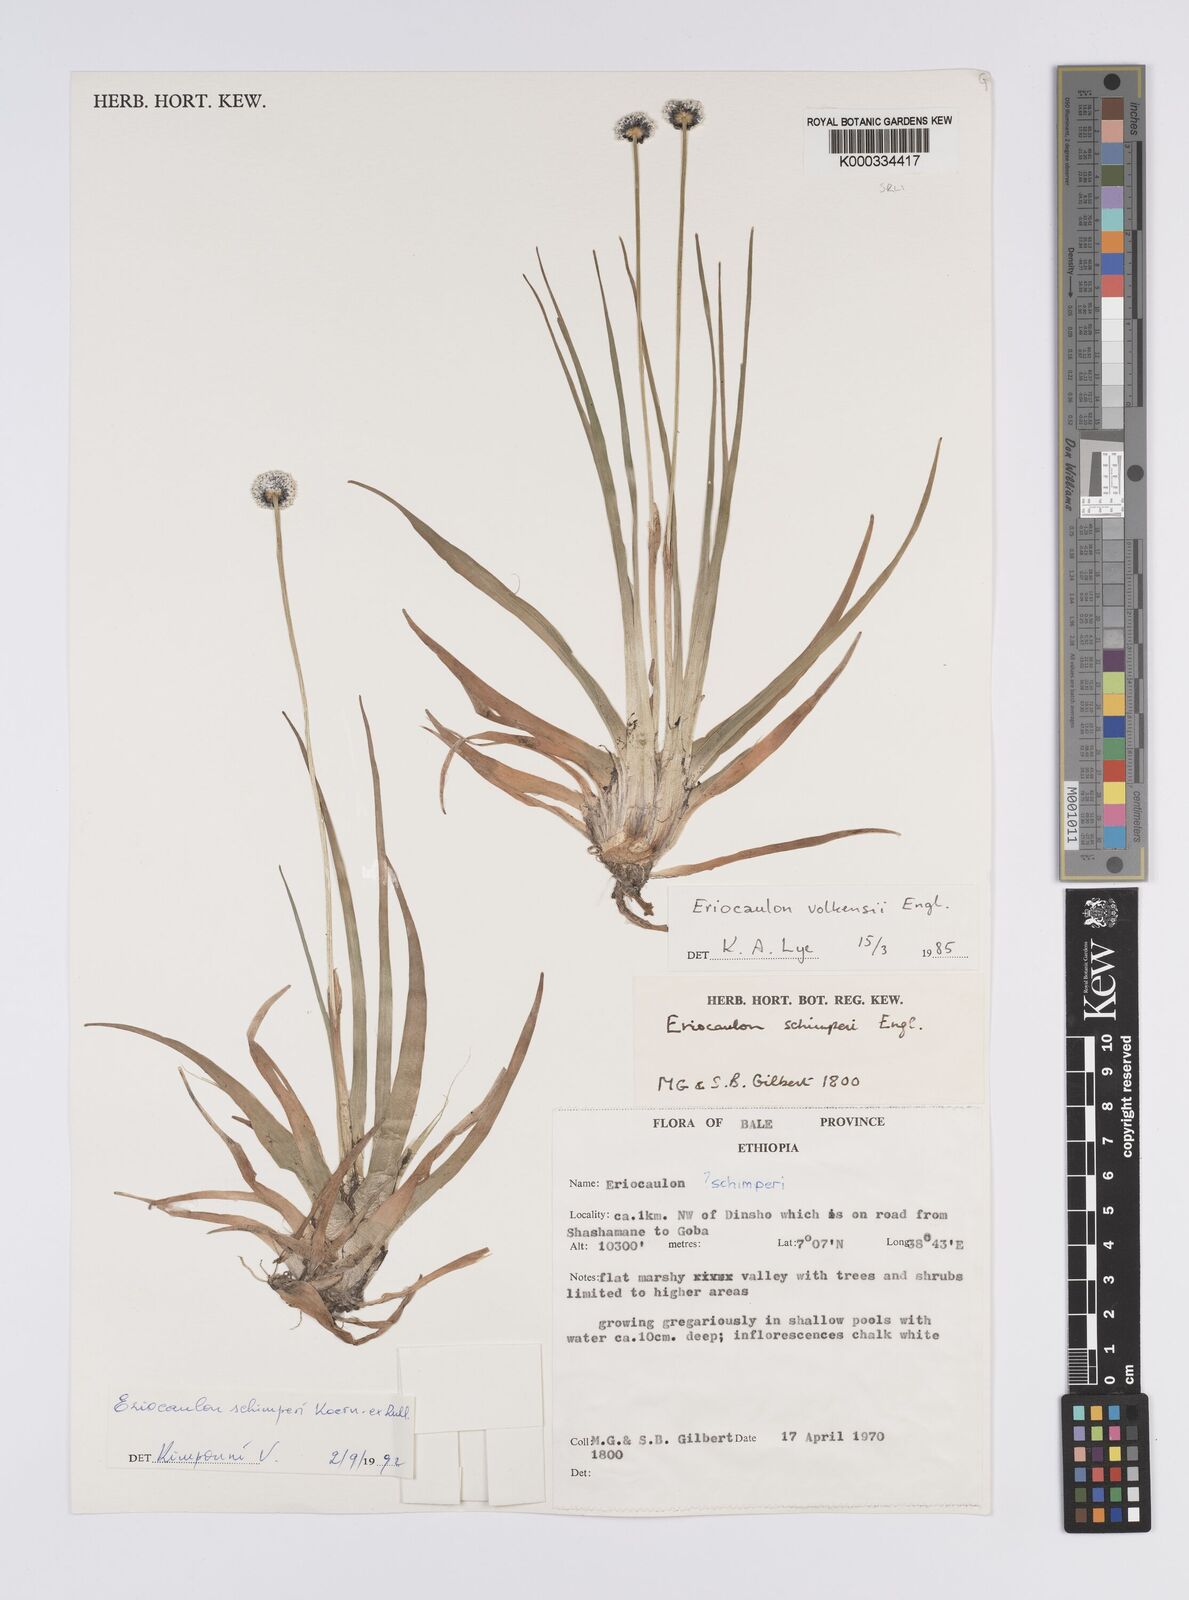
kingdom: Plantae
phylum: Tracheophyta
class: Liliopsida
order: Poales
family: Eriocaulaceae
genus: Eriocaulon
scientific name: Eriocaulon
